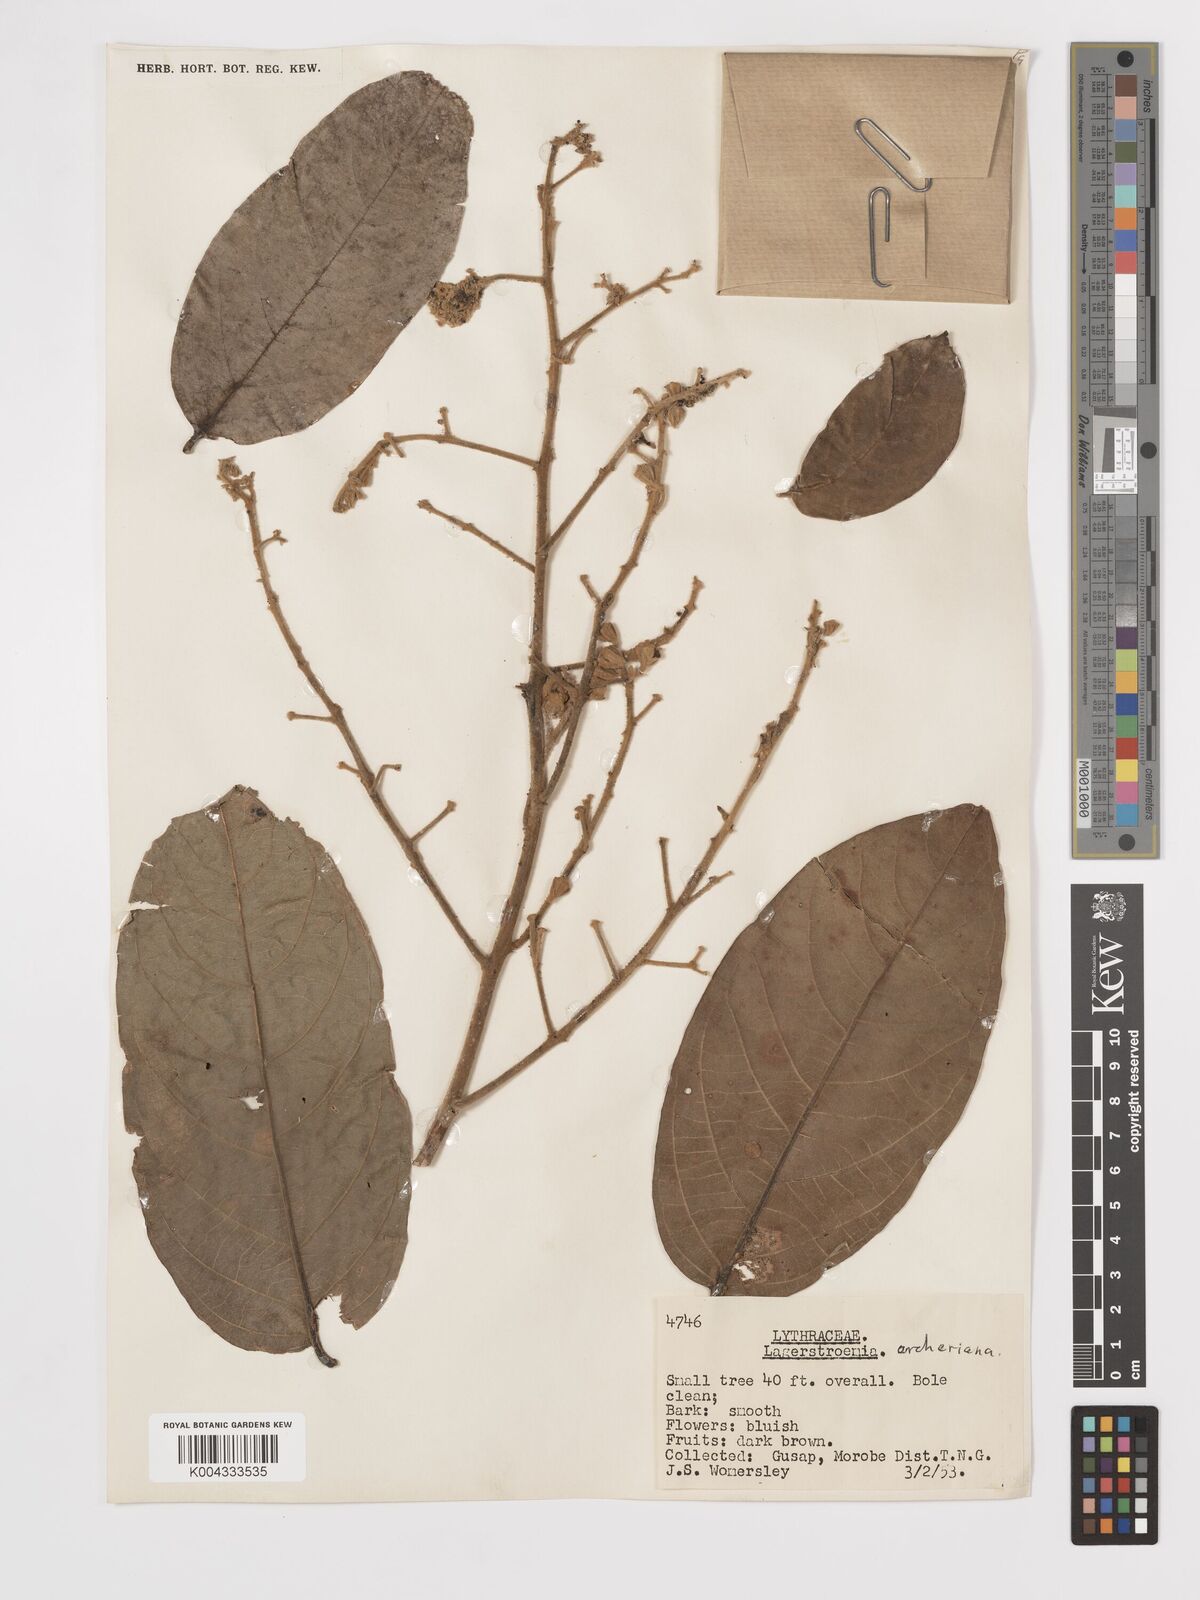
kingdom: Plantae
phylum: Tracheophyta
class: Magnoliopsida
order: Myrtales
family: Lythraceae
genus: Lagerstroemia
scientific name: Lagerstroemia engleriana
